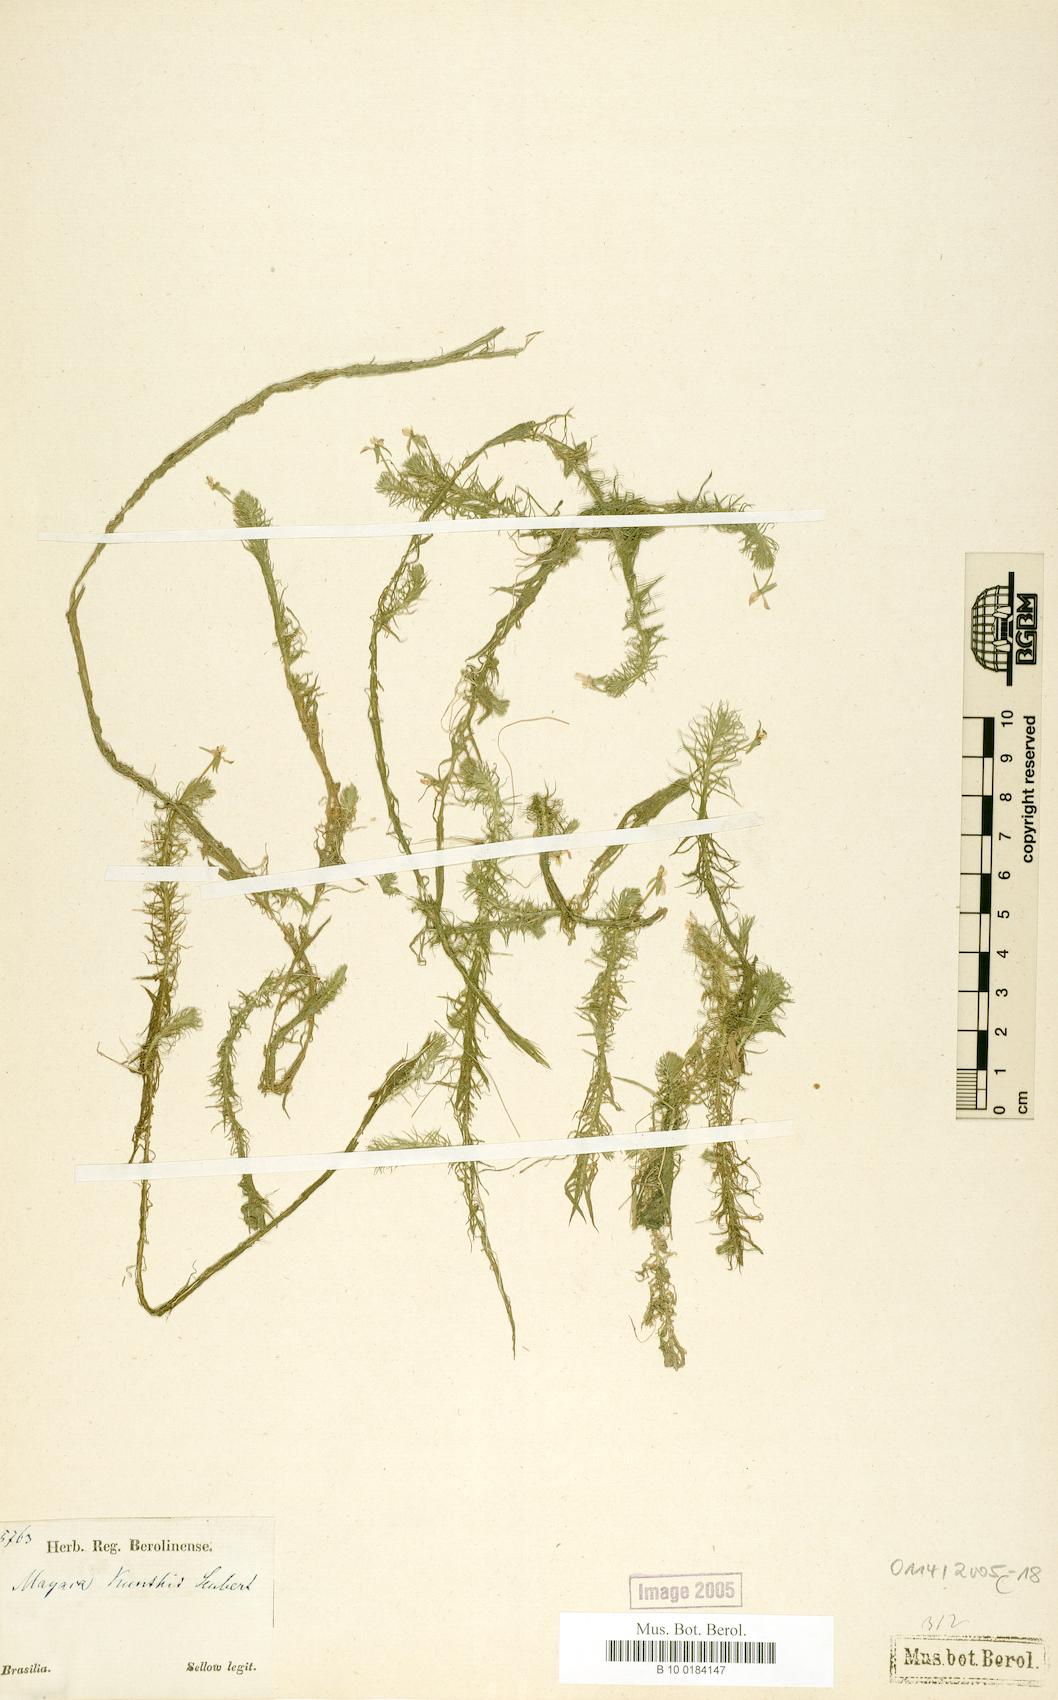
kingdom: Plantae
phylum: Tracheophyta
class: Liliopsida
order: Poales
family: Mayacaceae
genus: Mayaca
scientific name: Mayaca kunthii
